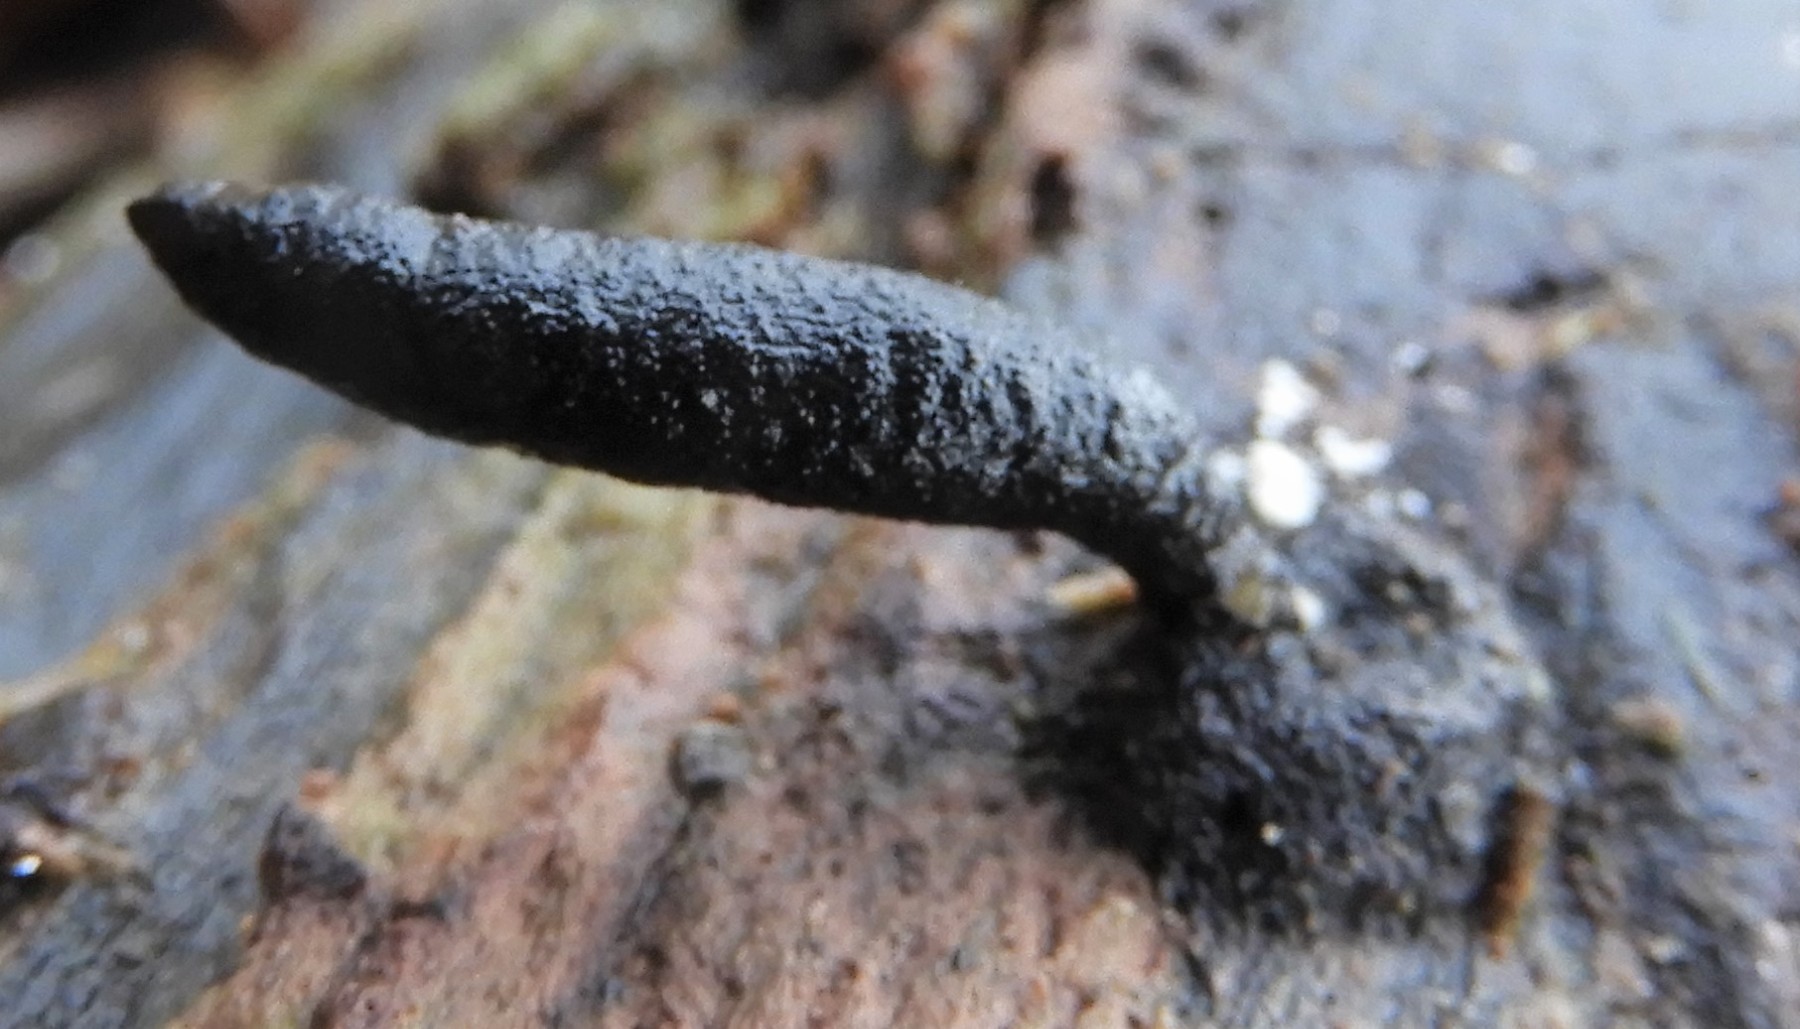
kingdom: Fungi
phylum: Ascomycota
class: Sordariomycetes
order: Xylariales
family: Xylariaceae
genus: Xylaria
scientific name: Xylaria longipes
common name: slank stødsvamp
